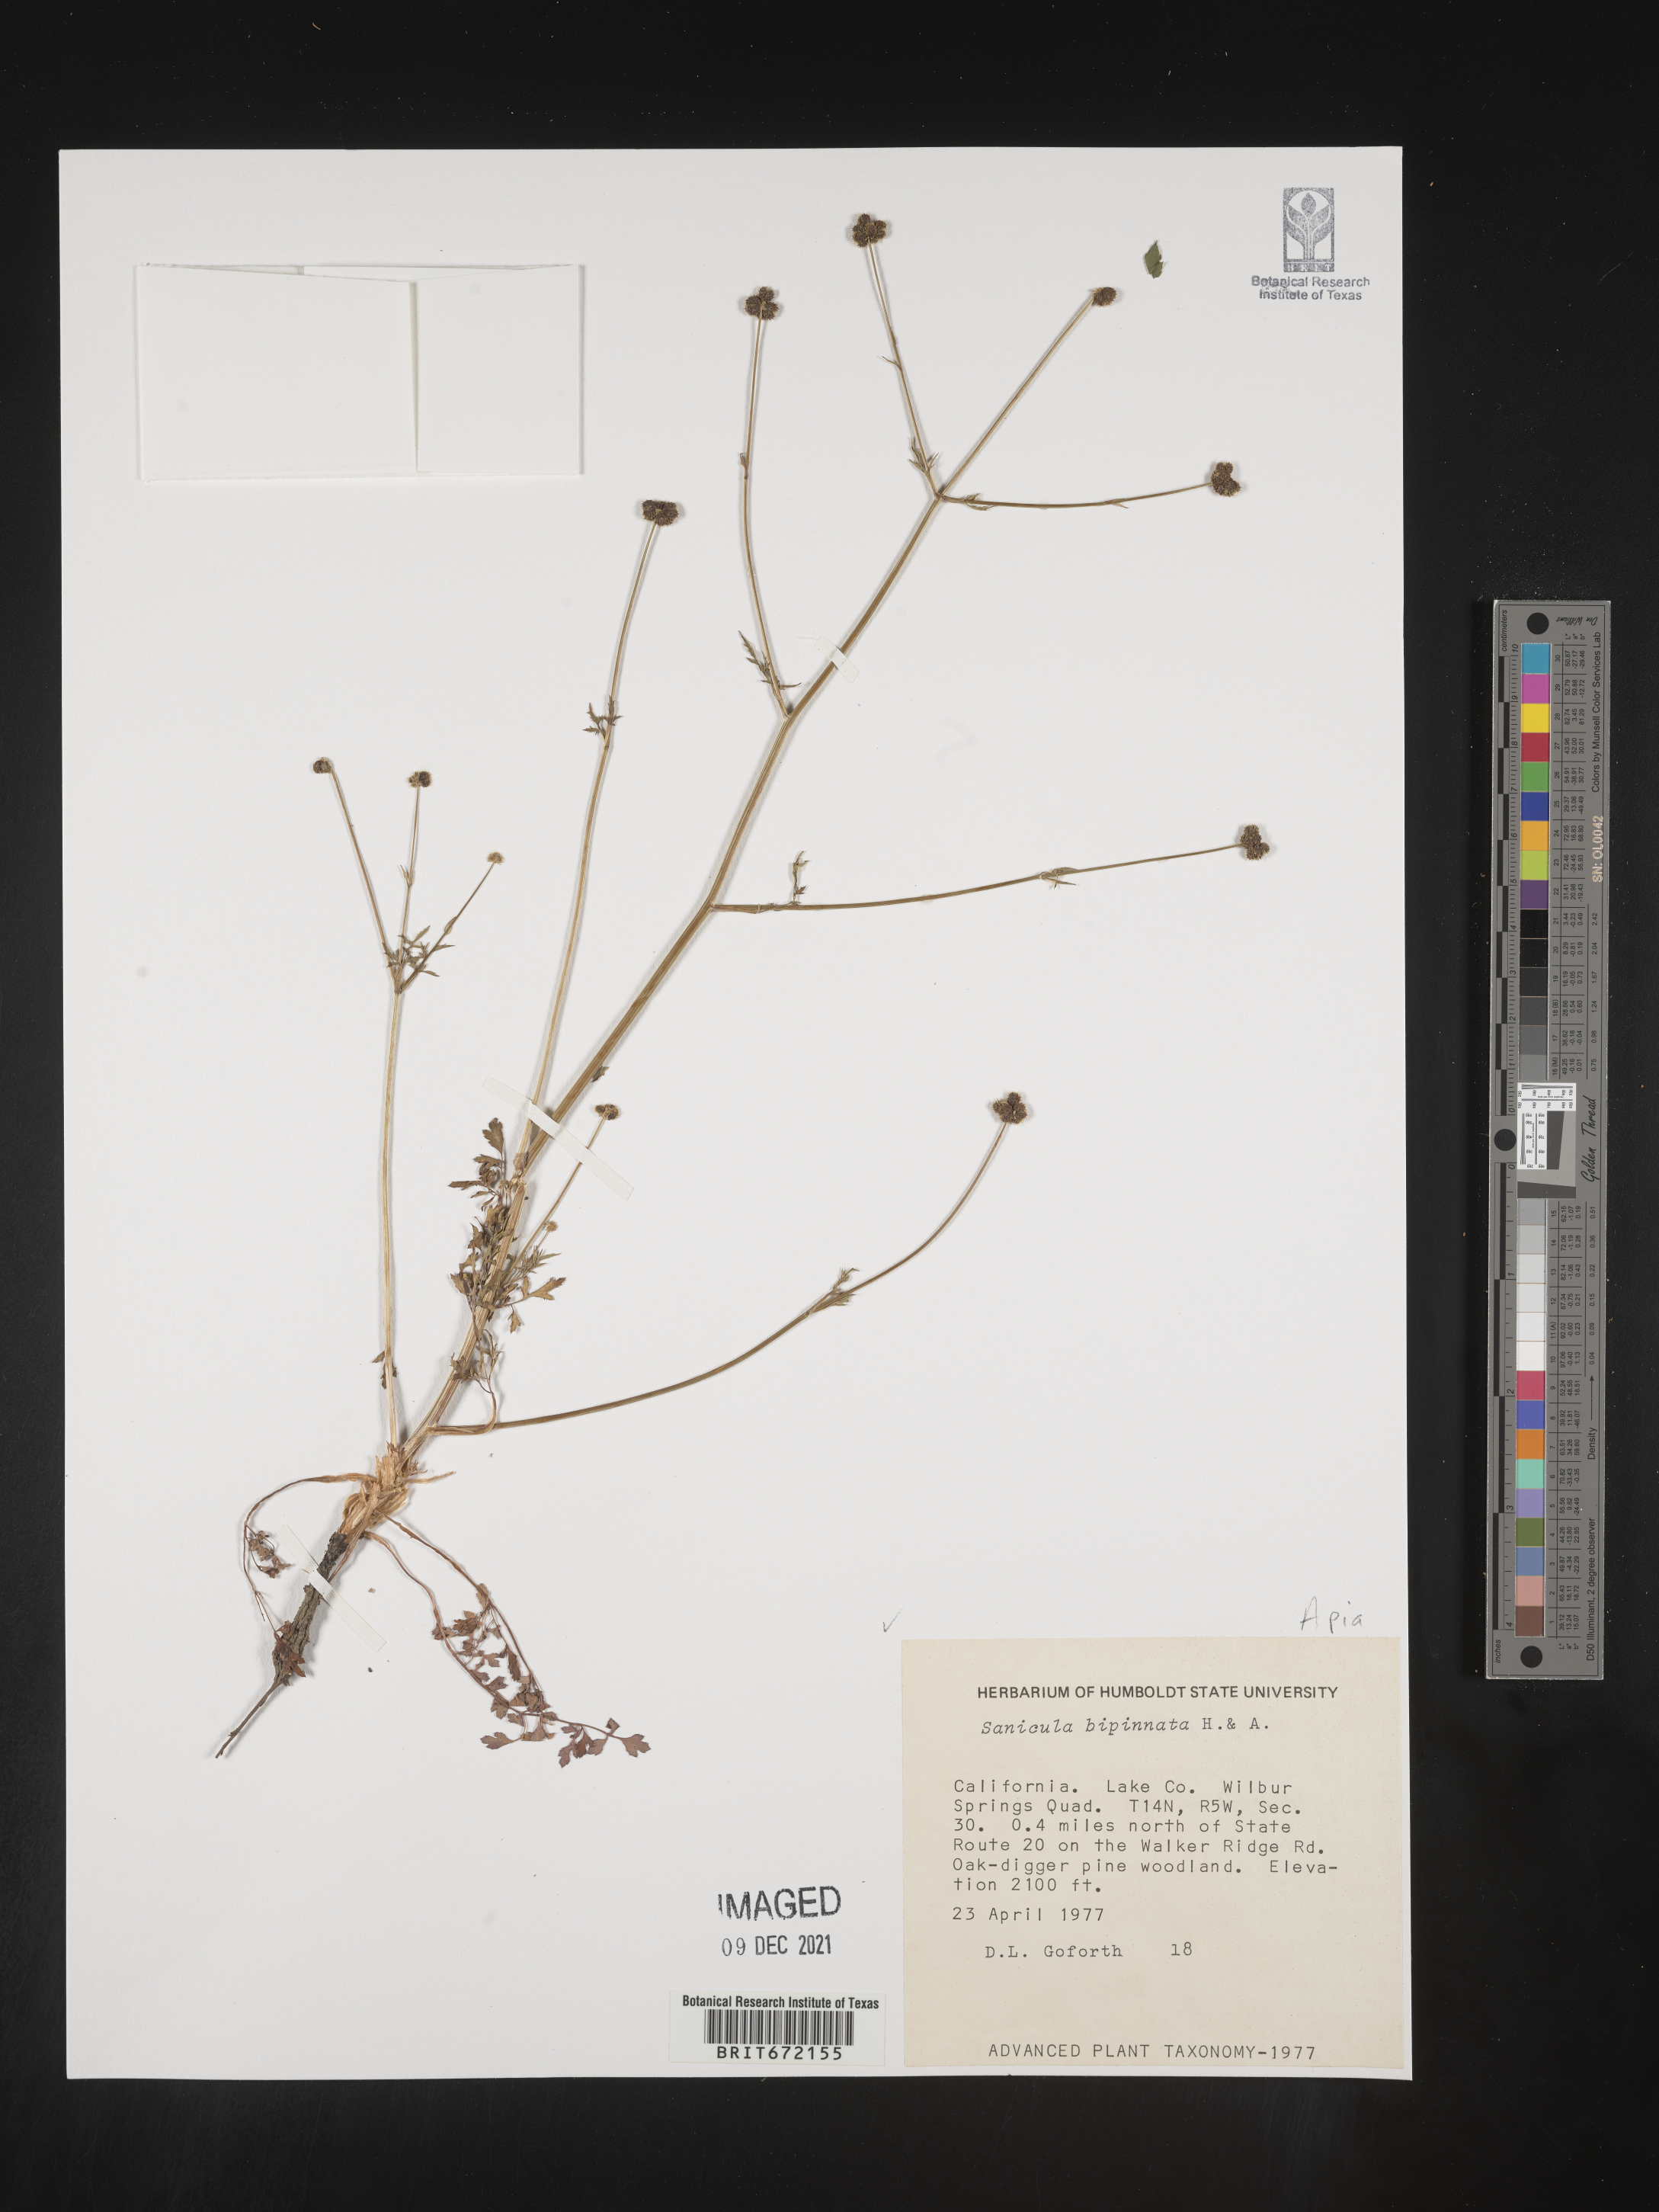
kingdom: Plantae
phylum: Tracheophyta
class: Magnoliopsida
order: Apiales
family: Apiaceae
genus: Sanicula
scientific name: Sanicula
